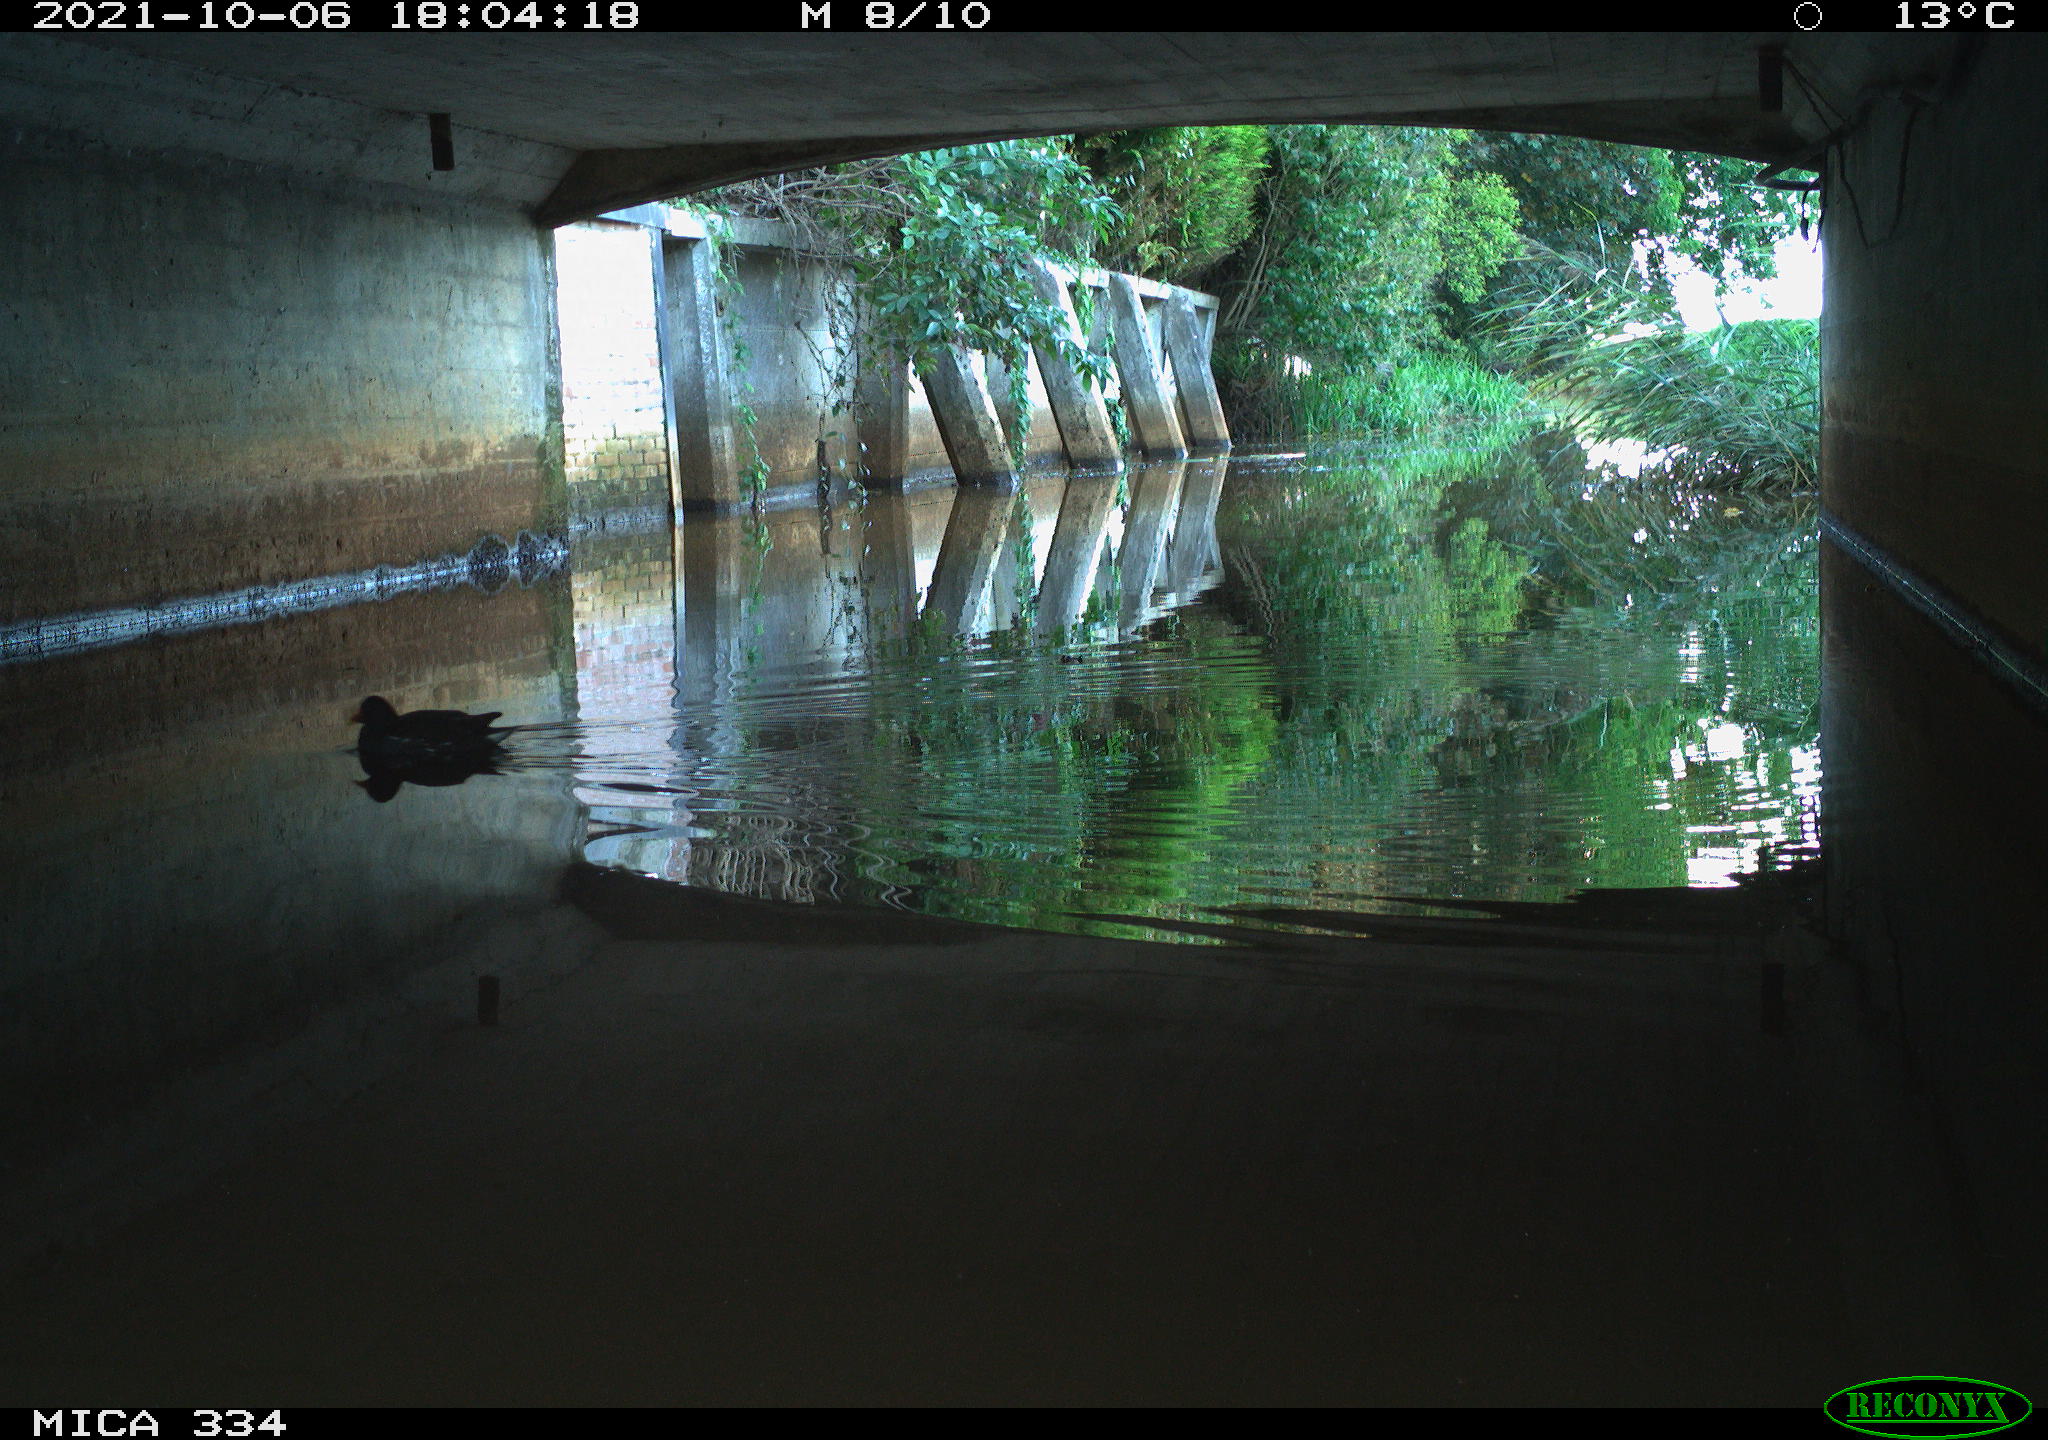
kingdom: Animalia
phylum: Chordata
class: Aves
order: Gruiformes
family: Rallidae
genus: Gallinula
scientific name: Gallinula chloropus
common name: Common moorhen
